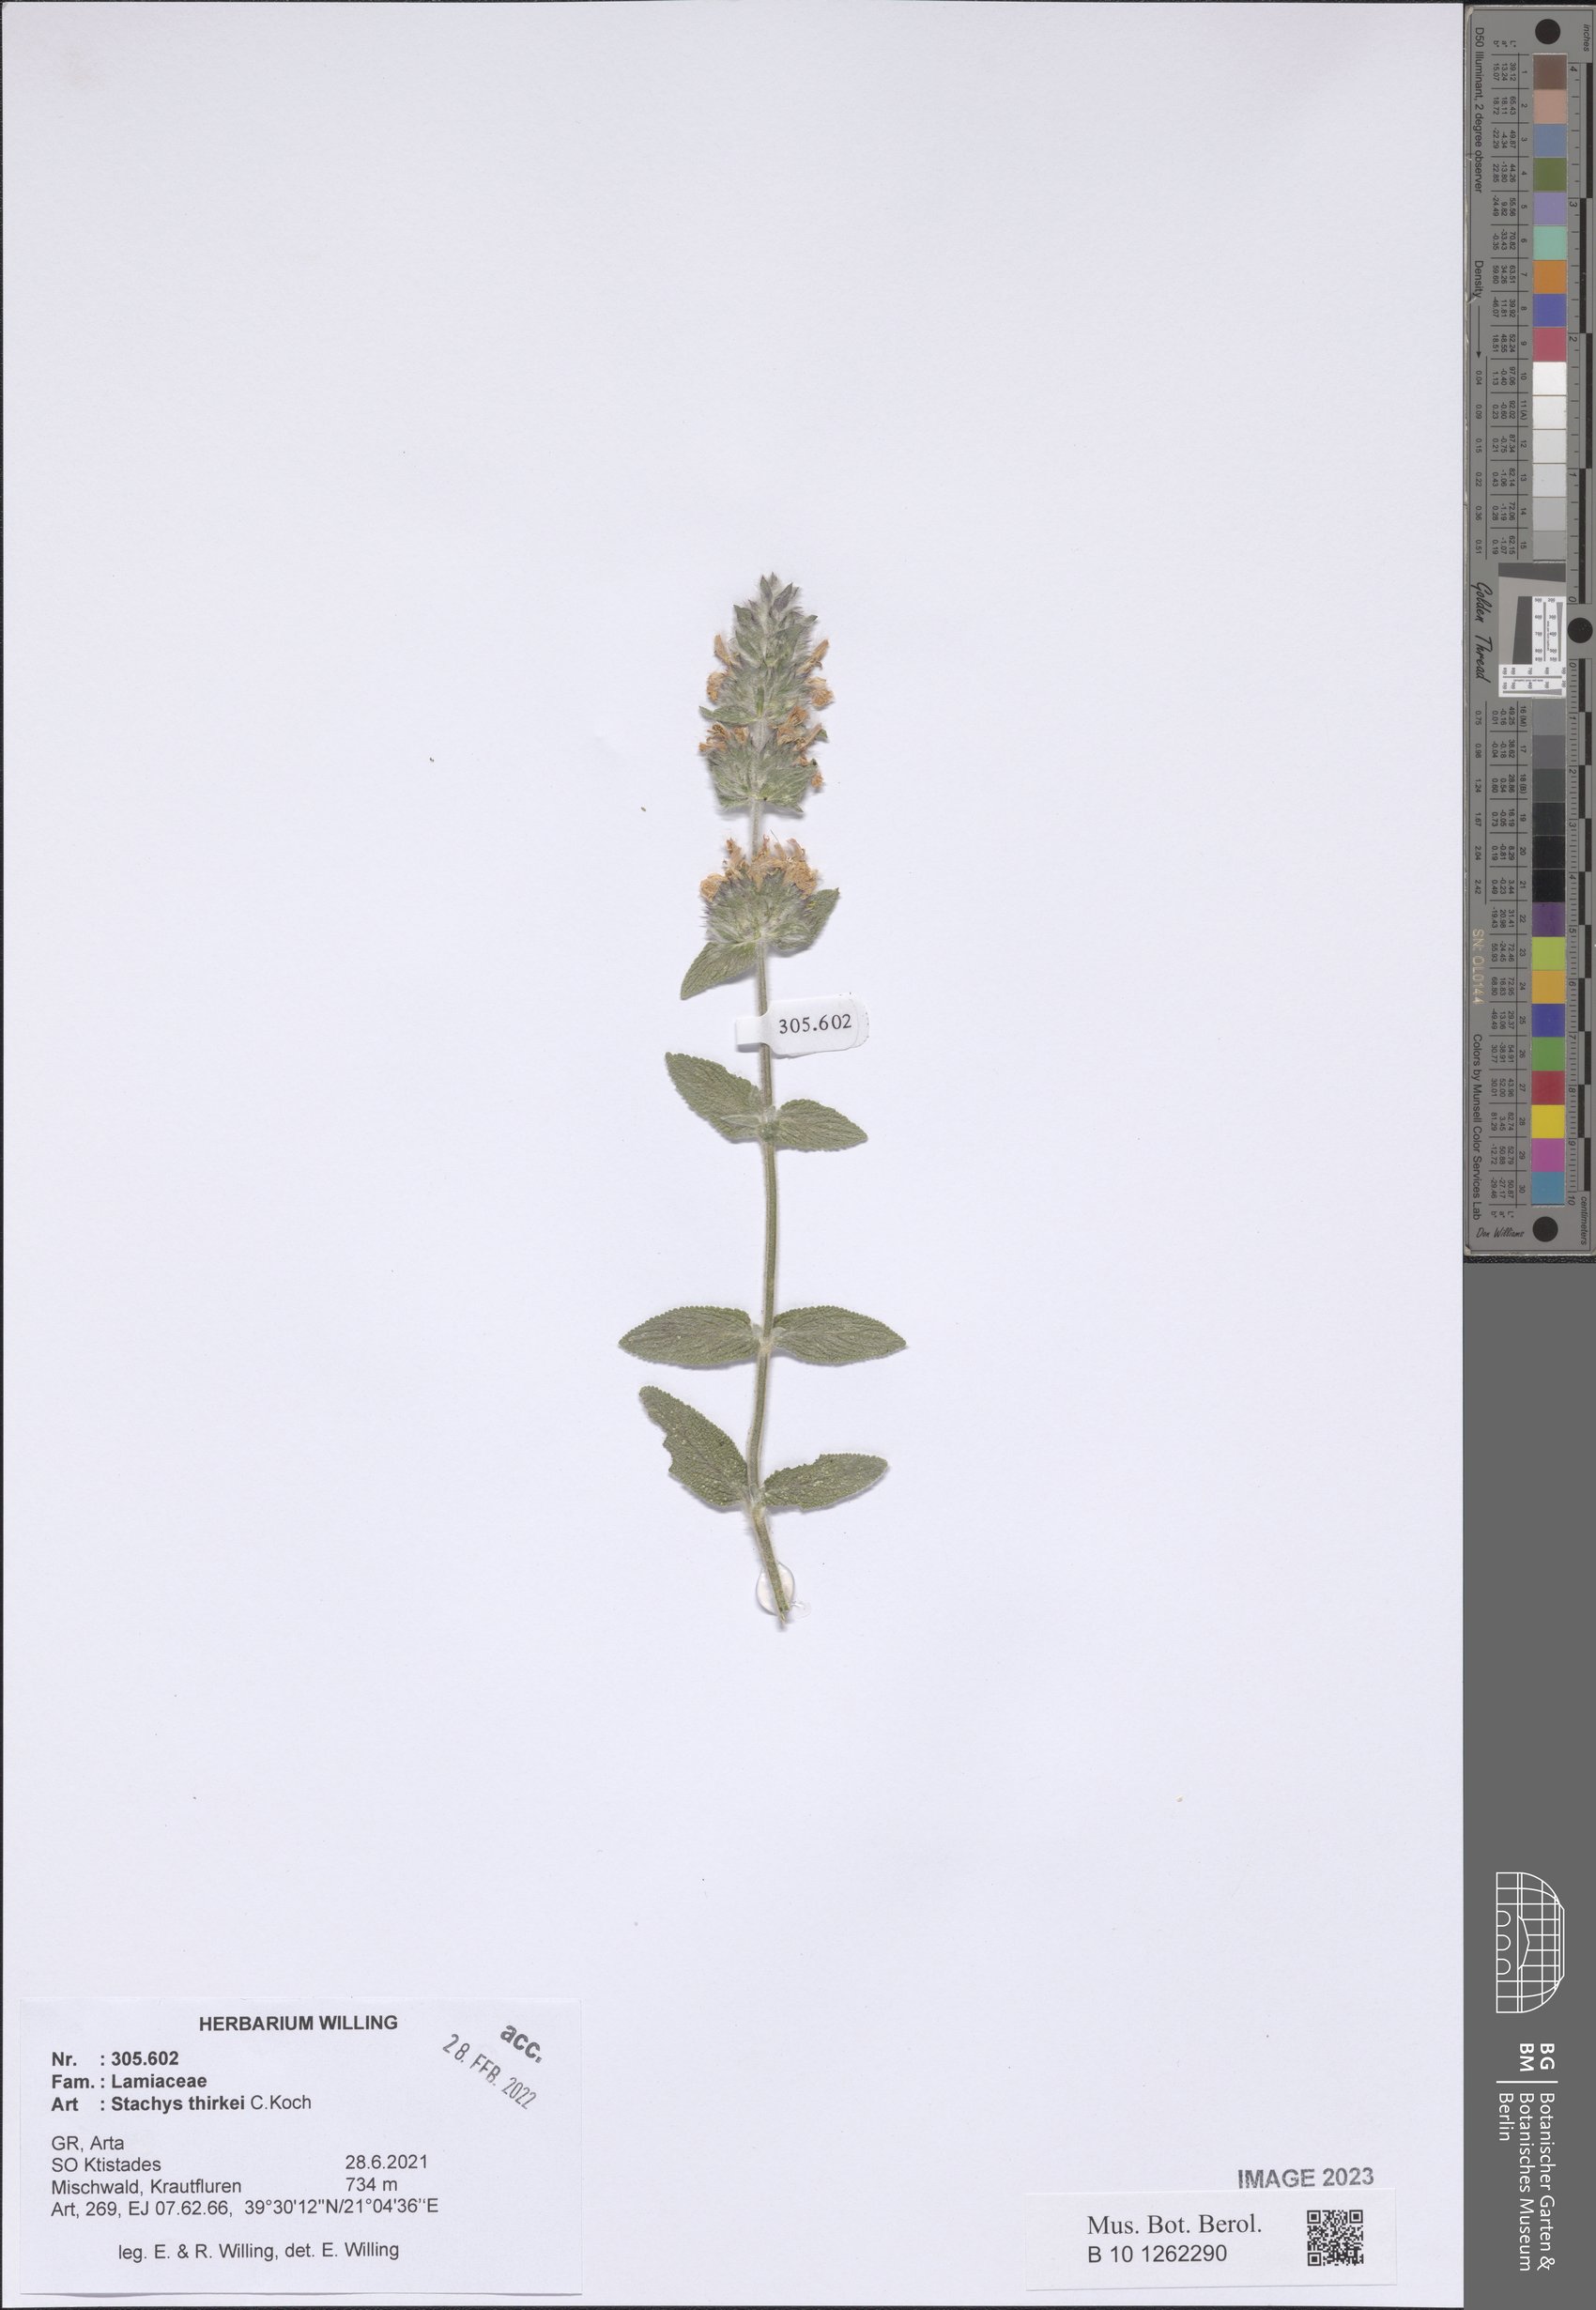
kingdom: Plantae
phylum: Tracheophyta
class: Magnoliopsida
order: Lamiales
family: Lamiaceae
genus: Stachys
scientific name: Stachys thirkei
